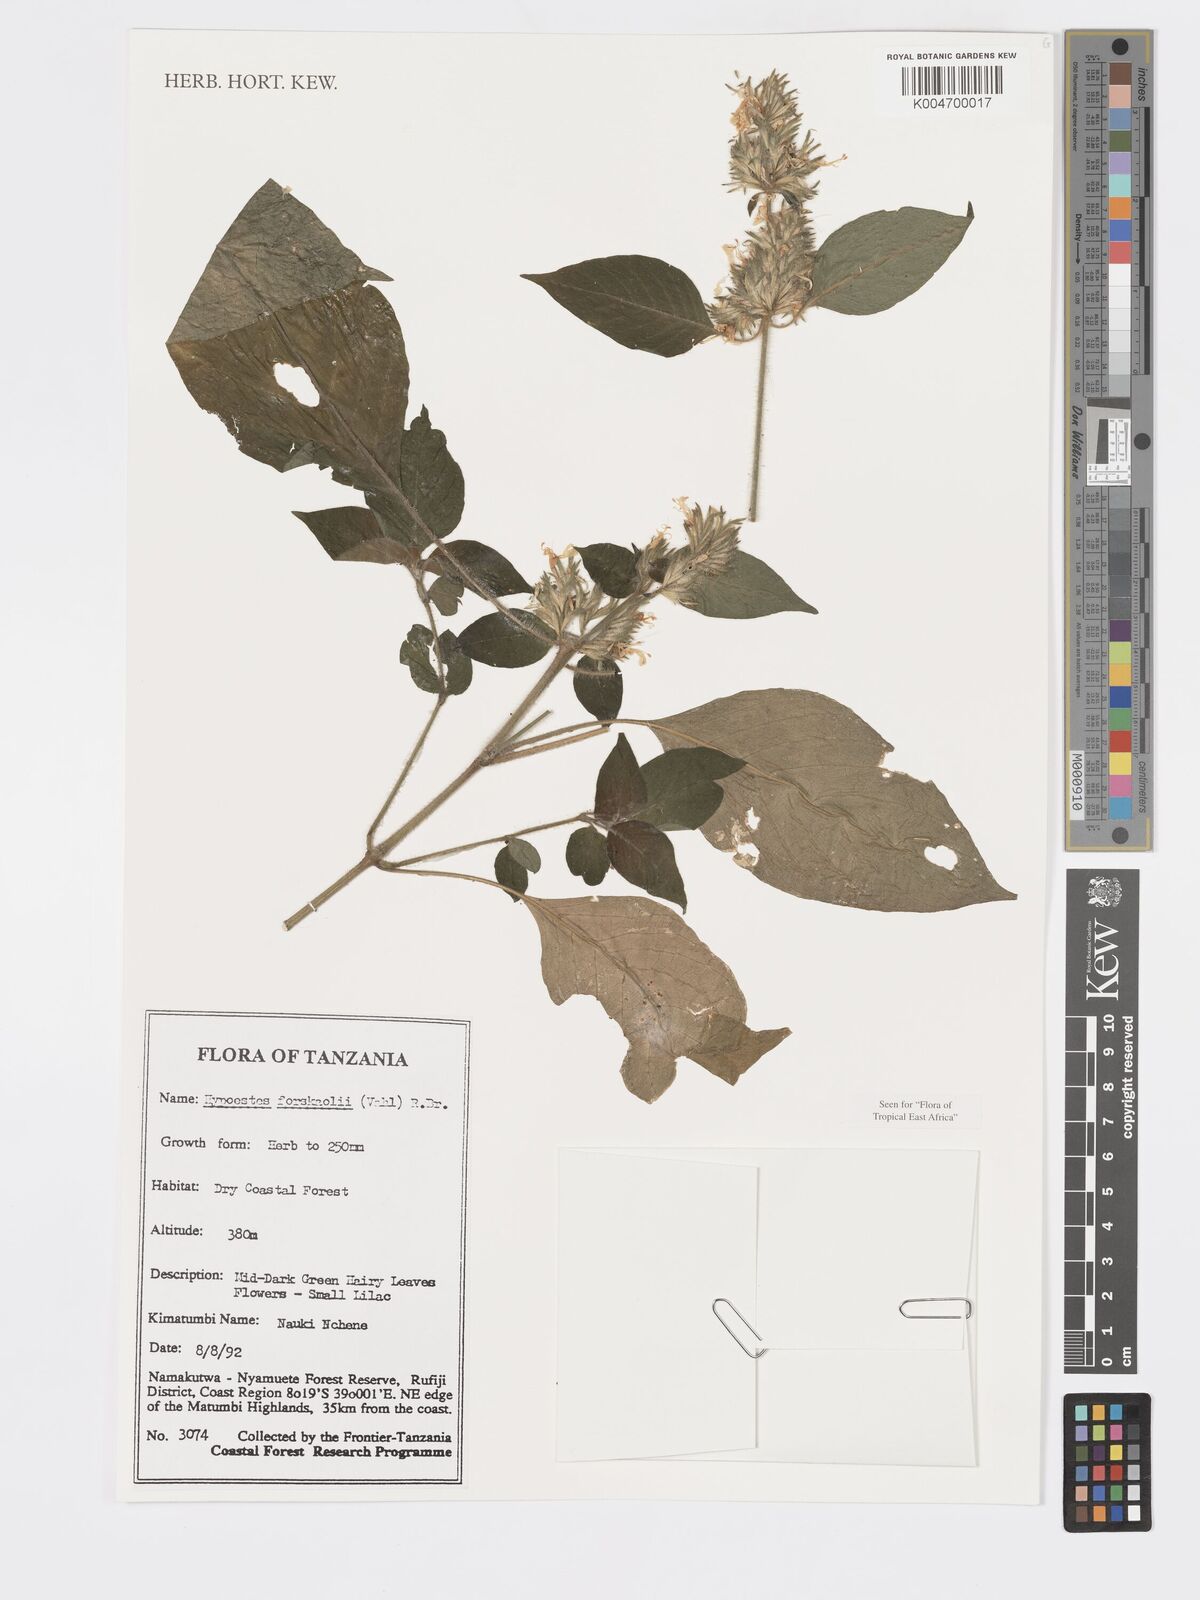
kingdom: Plantae
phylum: Tracheophyta
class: Magnoliopsida
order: Lamiales
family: Acanthaceae
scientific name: Acanthaceae
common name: Acanthaceae
